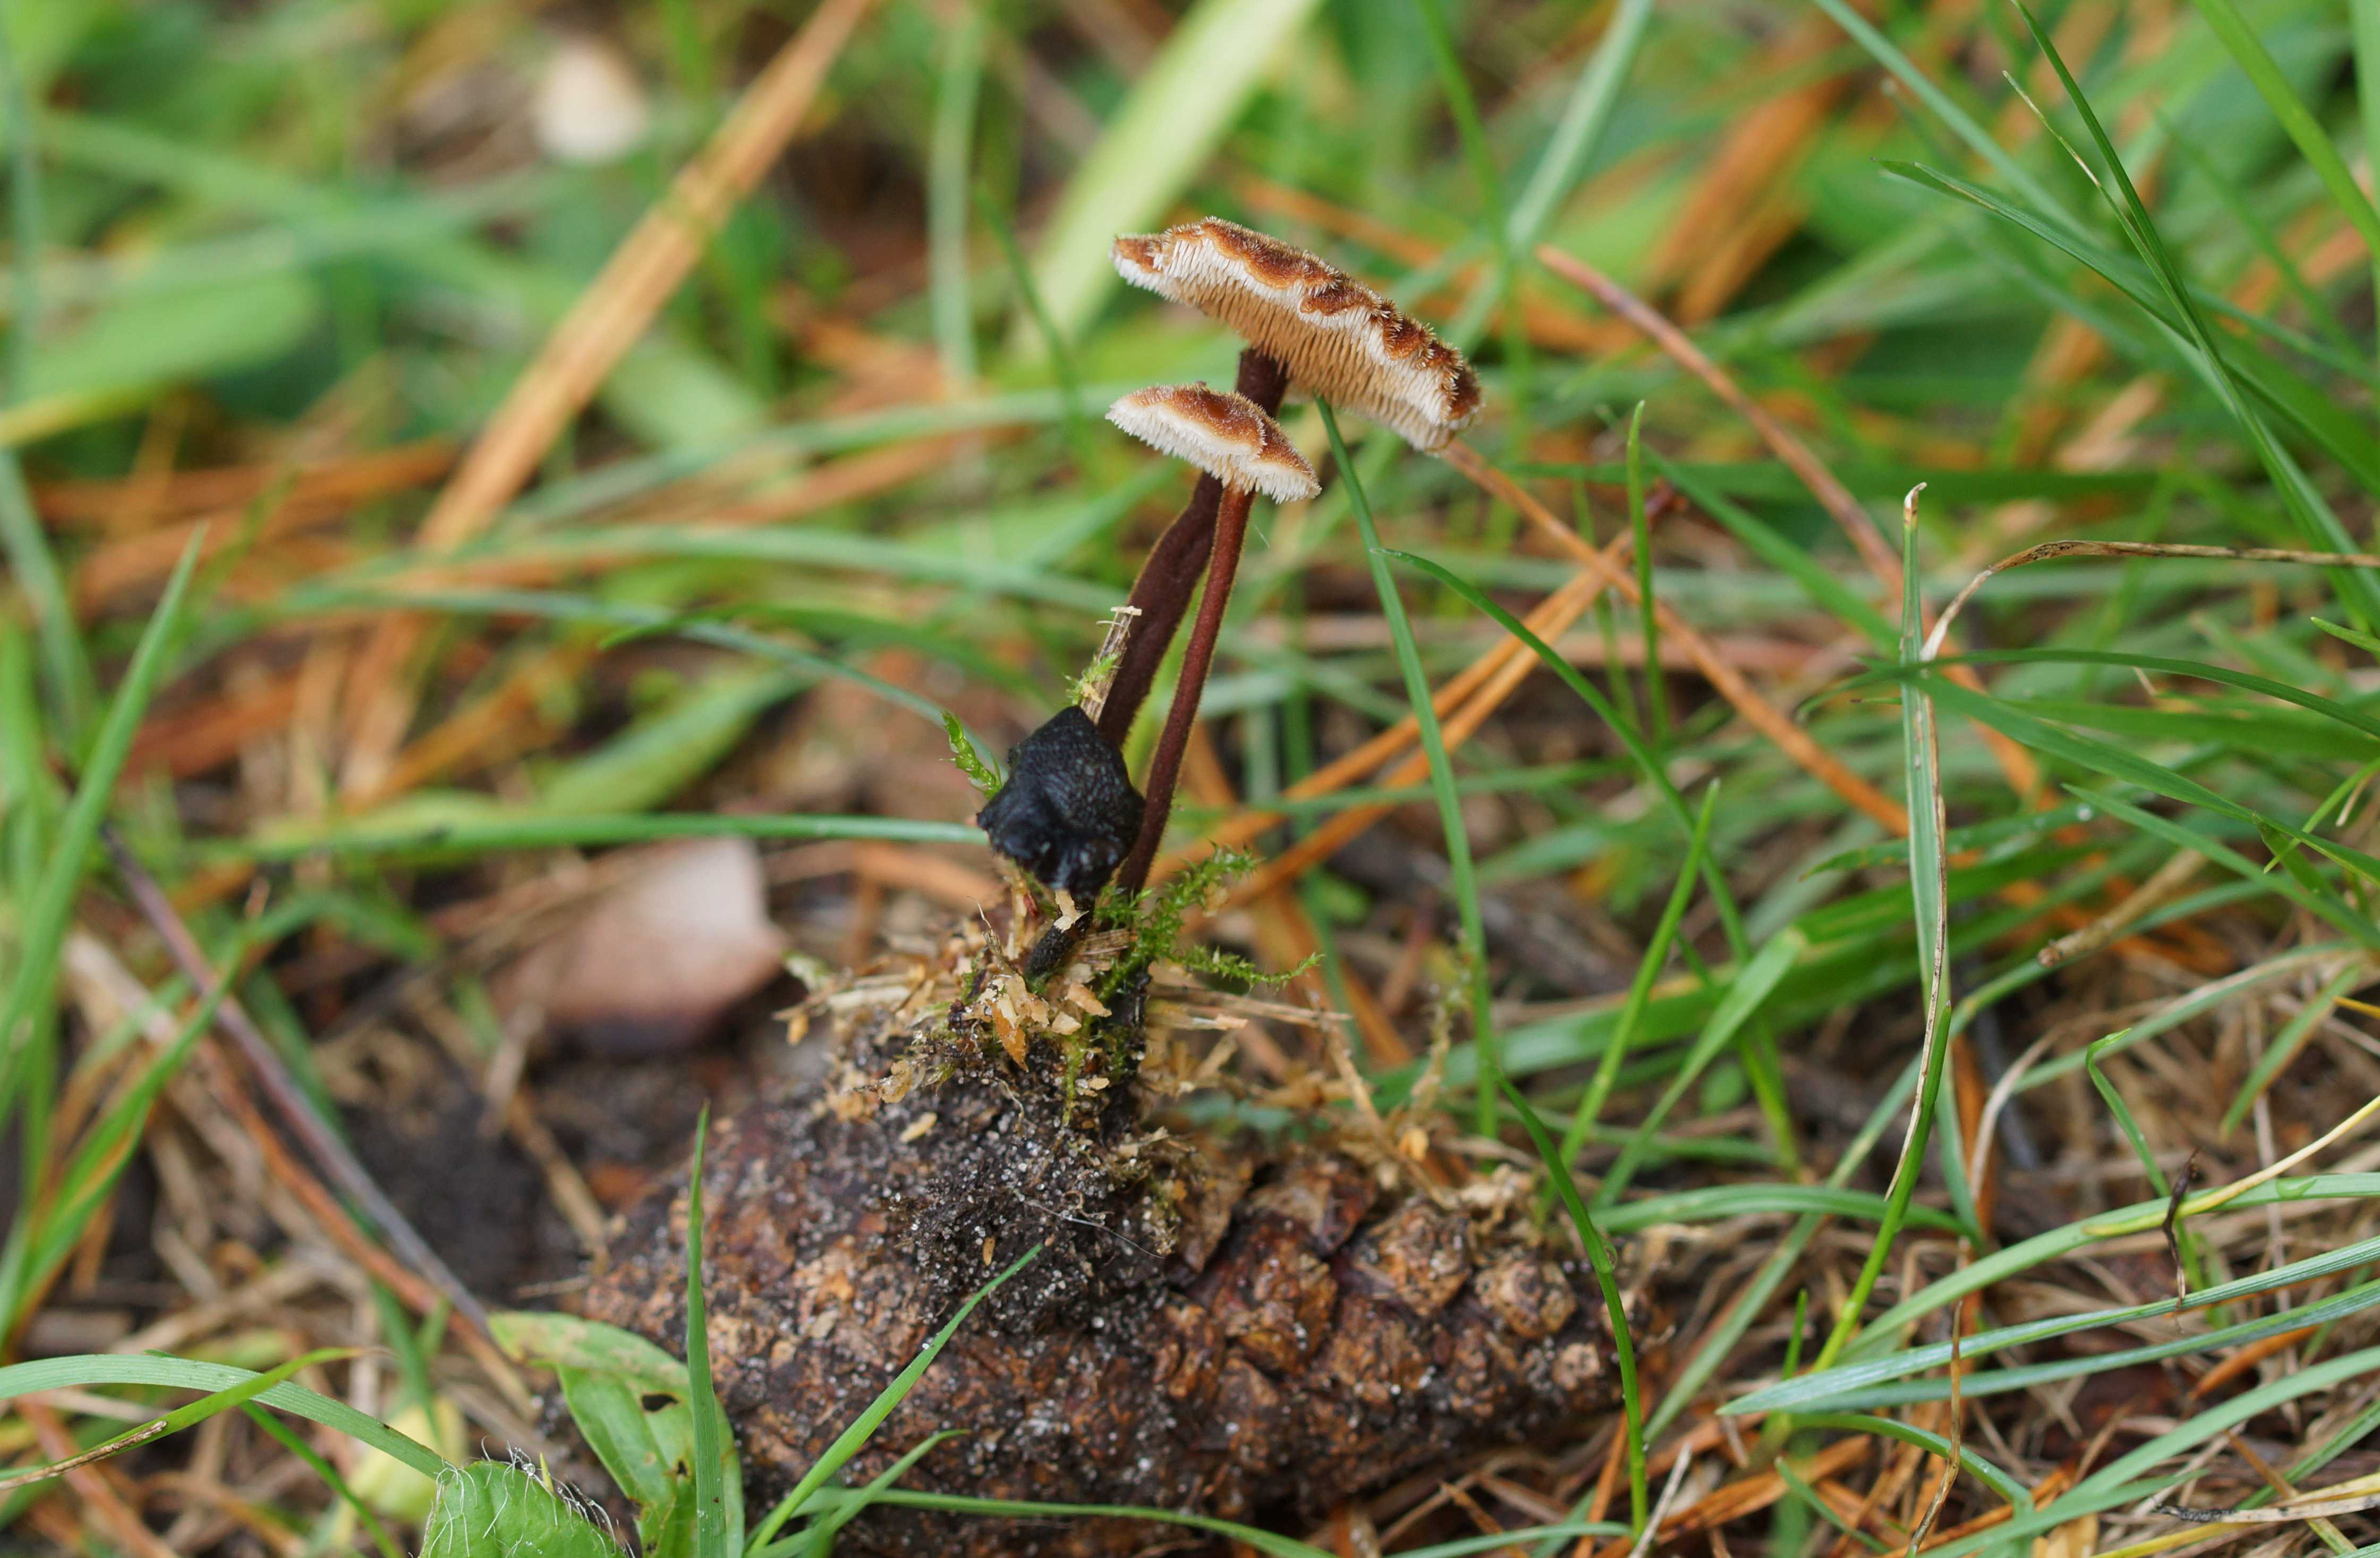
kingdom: Fungi
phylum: Basidiomycota
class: Agaricomycetes
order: Russulales
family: Auriscalpiaceae
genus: Auriscalpium
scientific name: Auriscalpium vulgare
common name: koglepigsvamp
